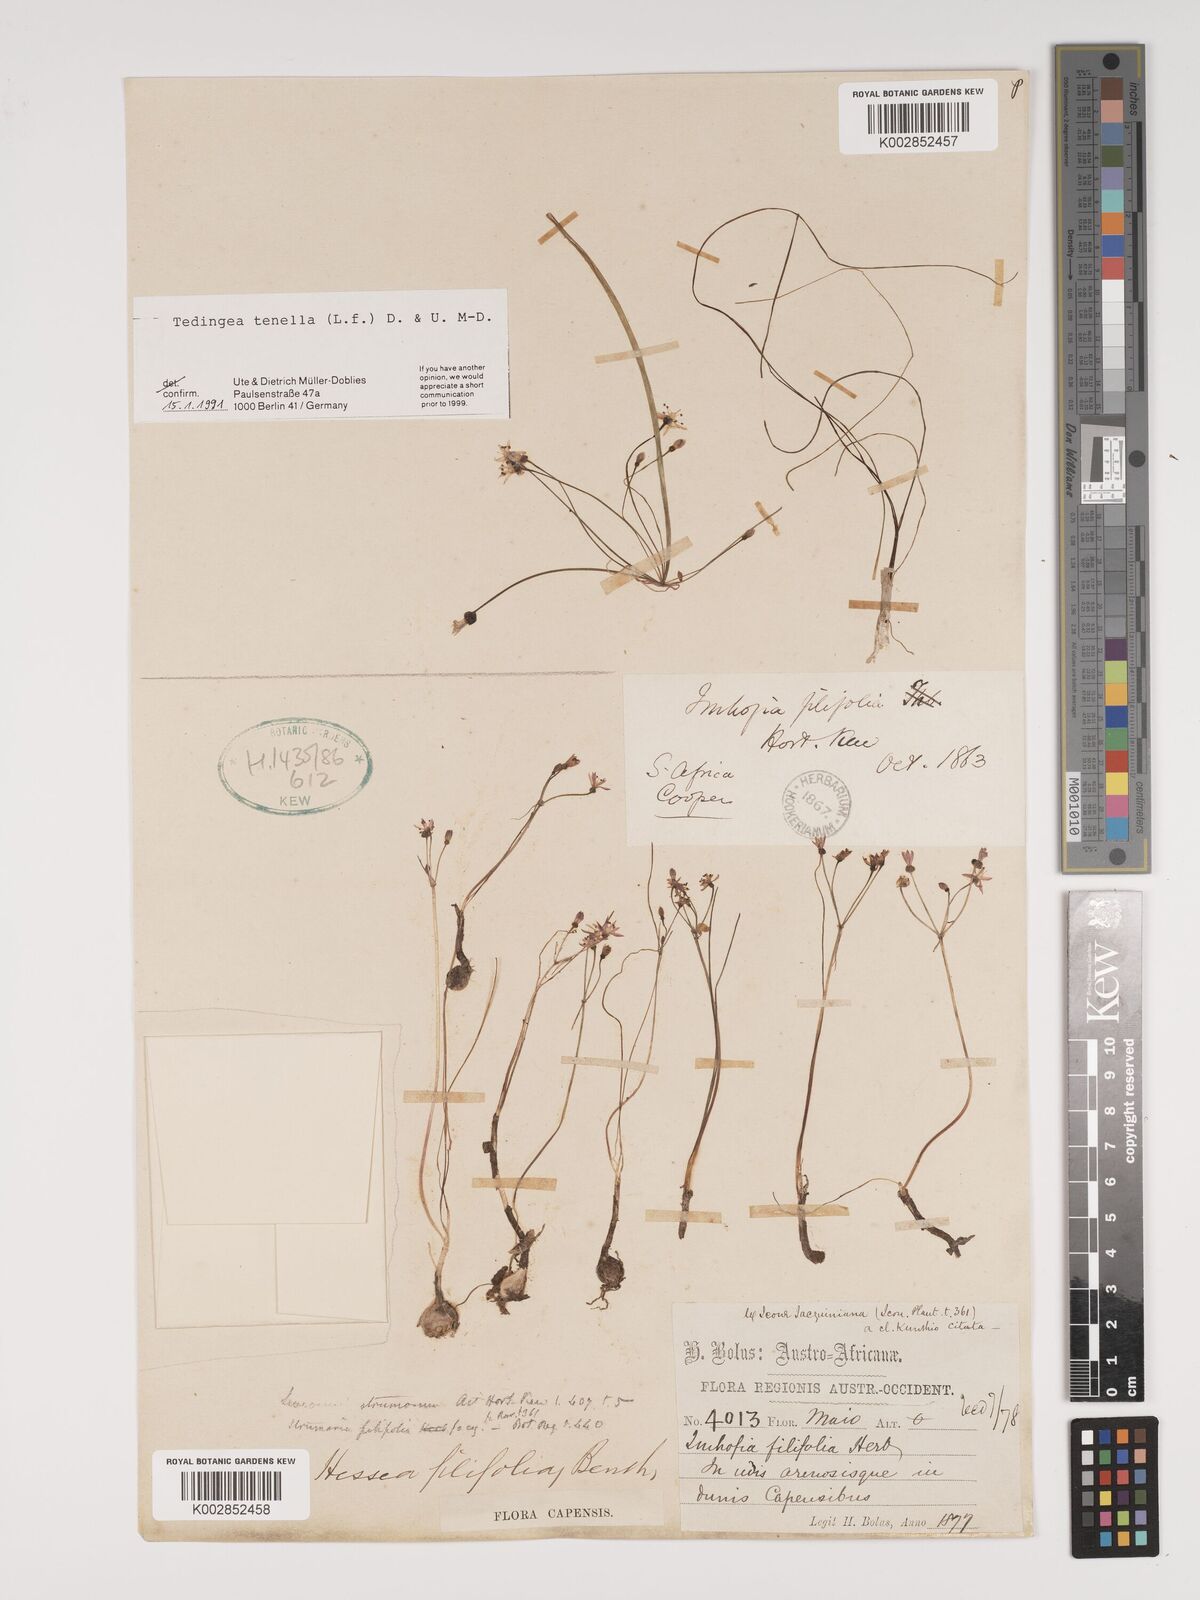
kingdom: Plantae
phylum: Tracheophyta
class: Liliopsida
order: Asparagales
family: Amaryllidaceae
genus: Strumaria
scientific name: Strumaria tenella
